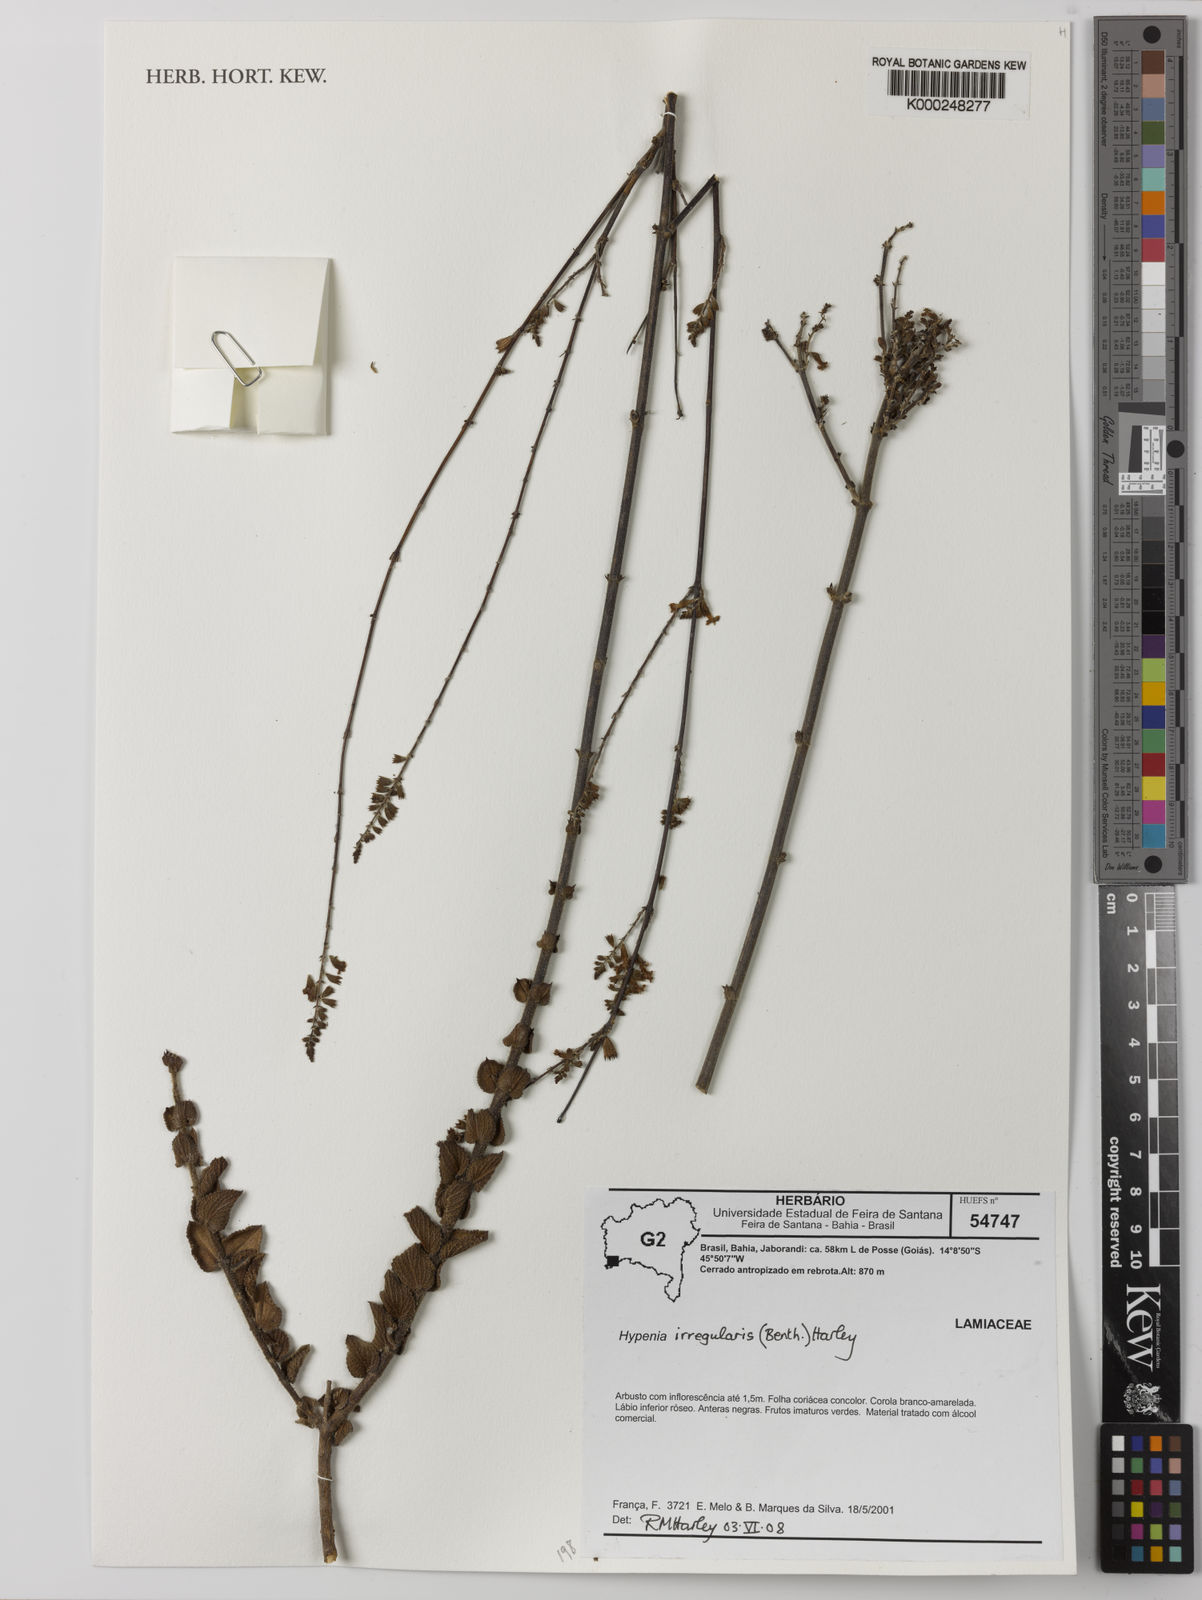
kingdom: Plantae
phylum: Tracheophyta
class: Magnoliopsida
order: Lamiales
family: Lamiaceae
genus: Hypenia
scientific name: Hypenia irregularis
